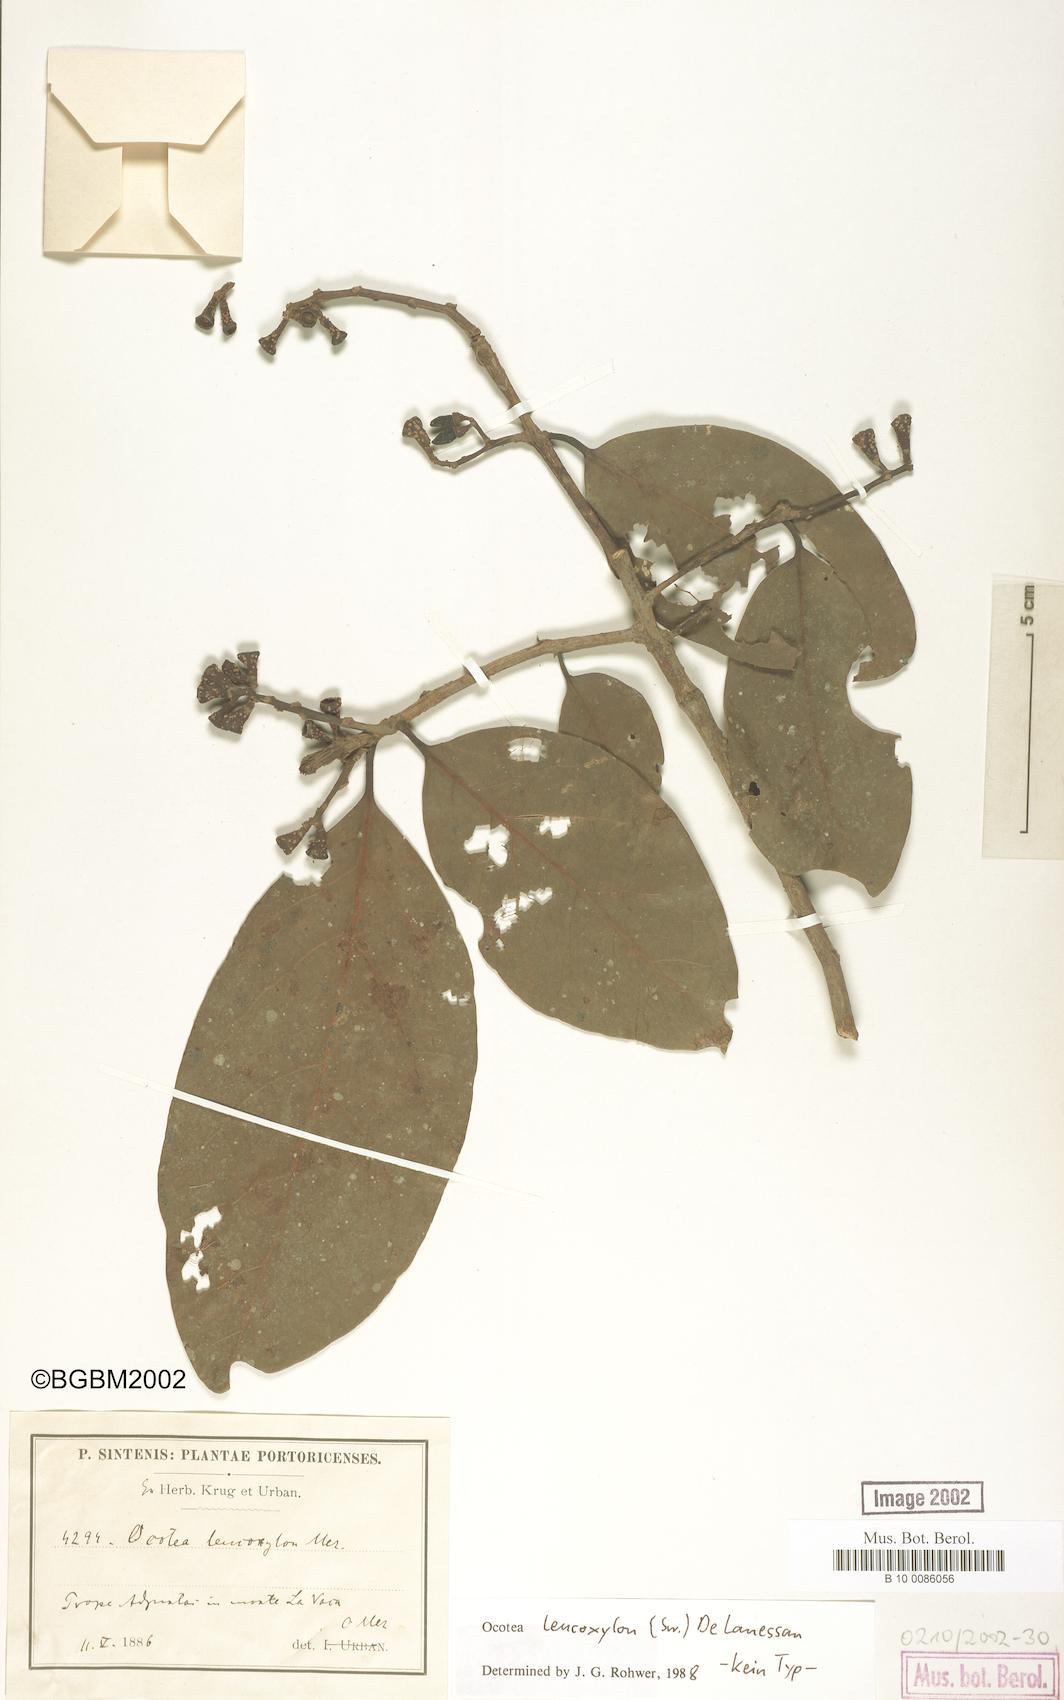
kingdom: Plantae
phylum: Tracheophyta
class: Magnoliopsida
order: Laurales
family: Lauraceae
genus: Ocotea
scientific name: Ocotea leucoxylon
